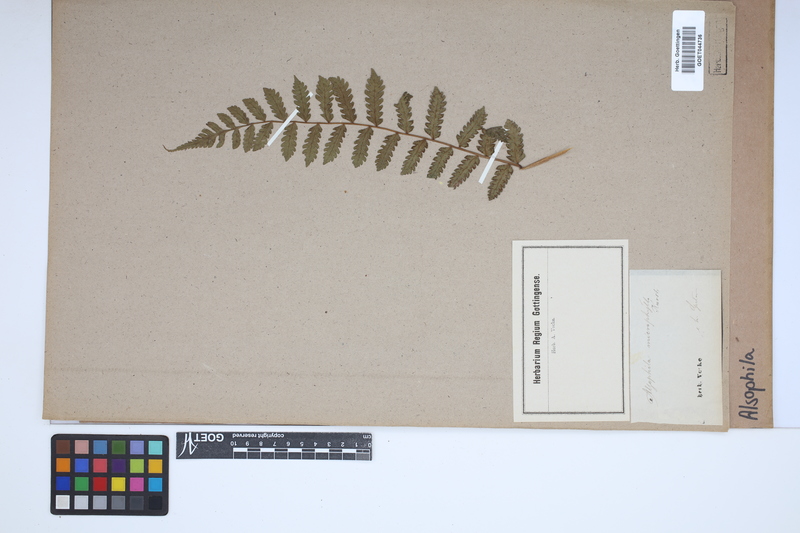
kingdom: Plantae
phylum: Tracheophyta
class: Polypodiopsida
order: Cyatheales
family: Cyatheaceae
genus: Alsophila
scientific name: Alsophila
